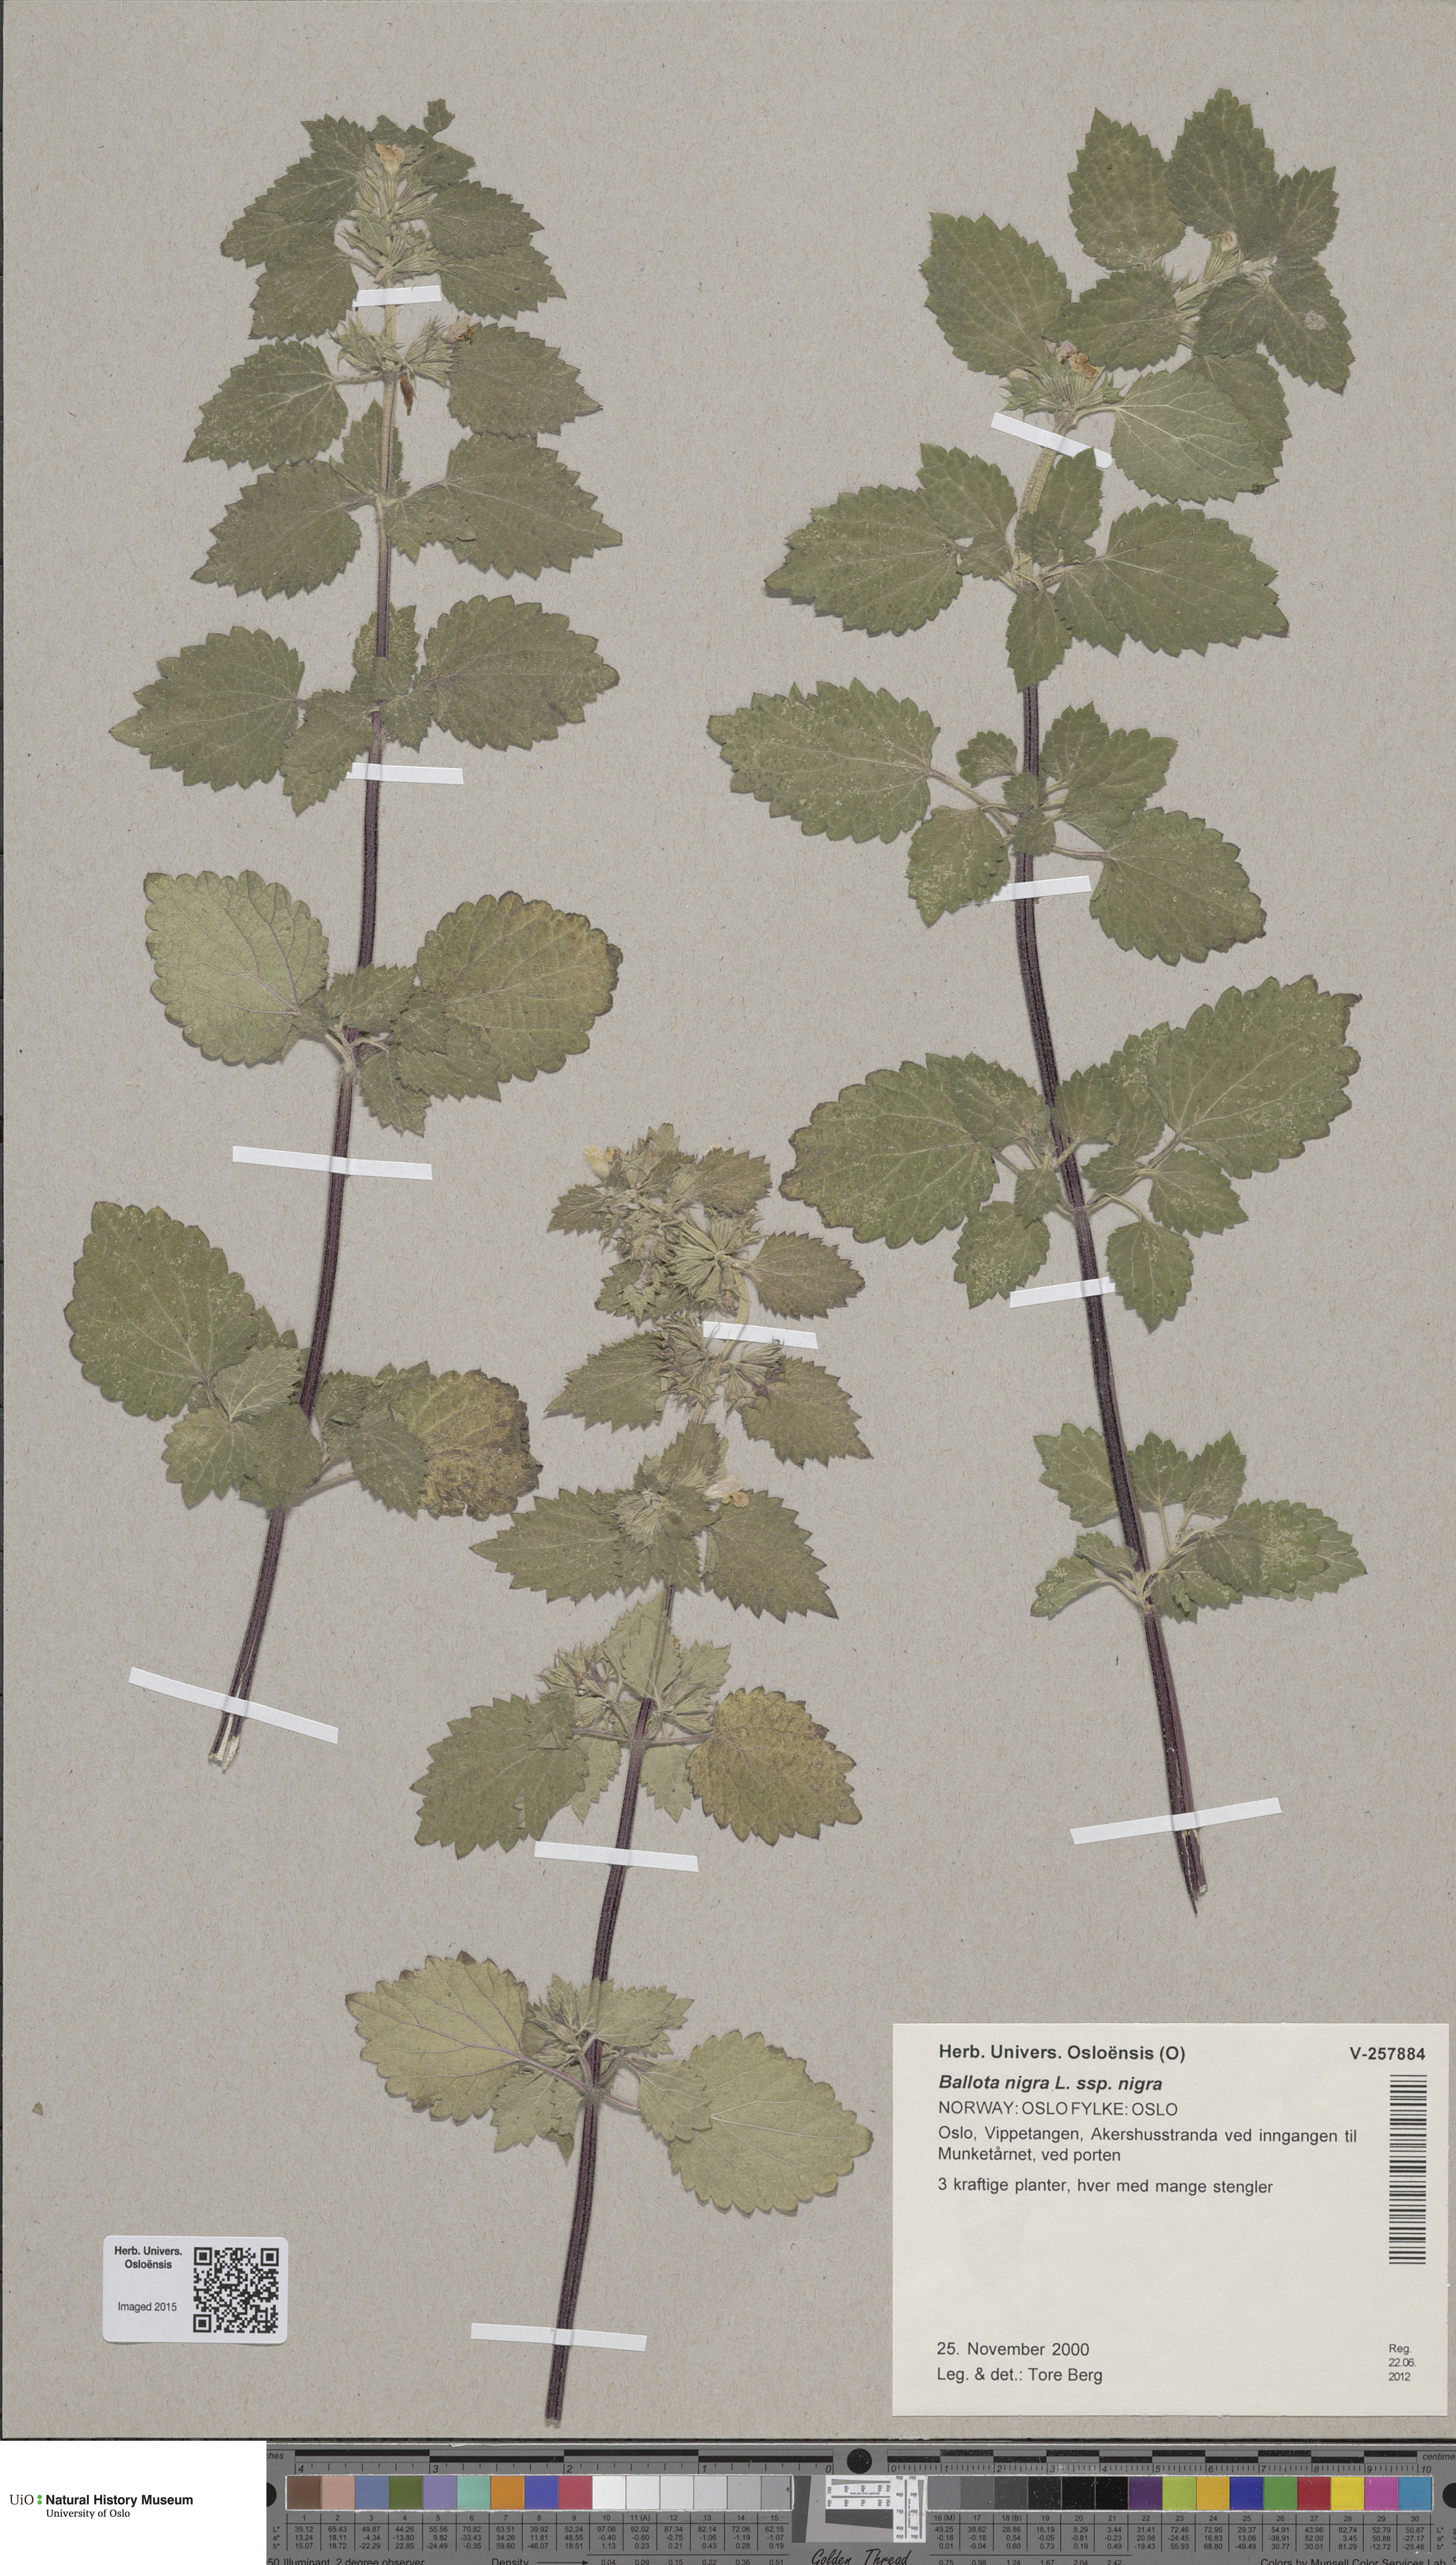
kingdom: Plantae
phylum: Tracheophyta
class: Magnoliopsida
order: Lamiales
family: Lamiaceae
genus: Ballota
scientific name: Ballota nigra
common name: Black horehound
